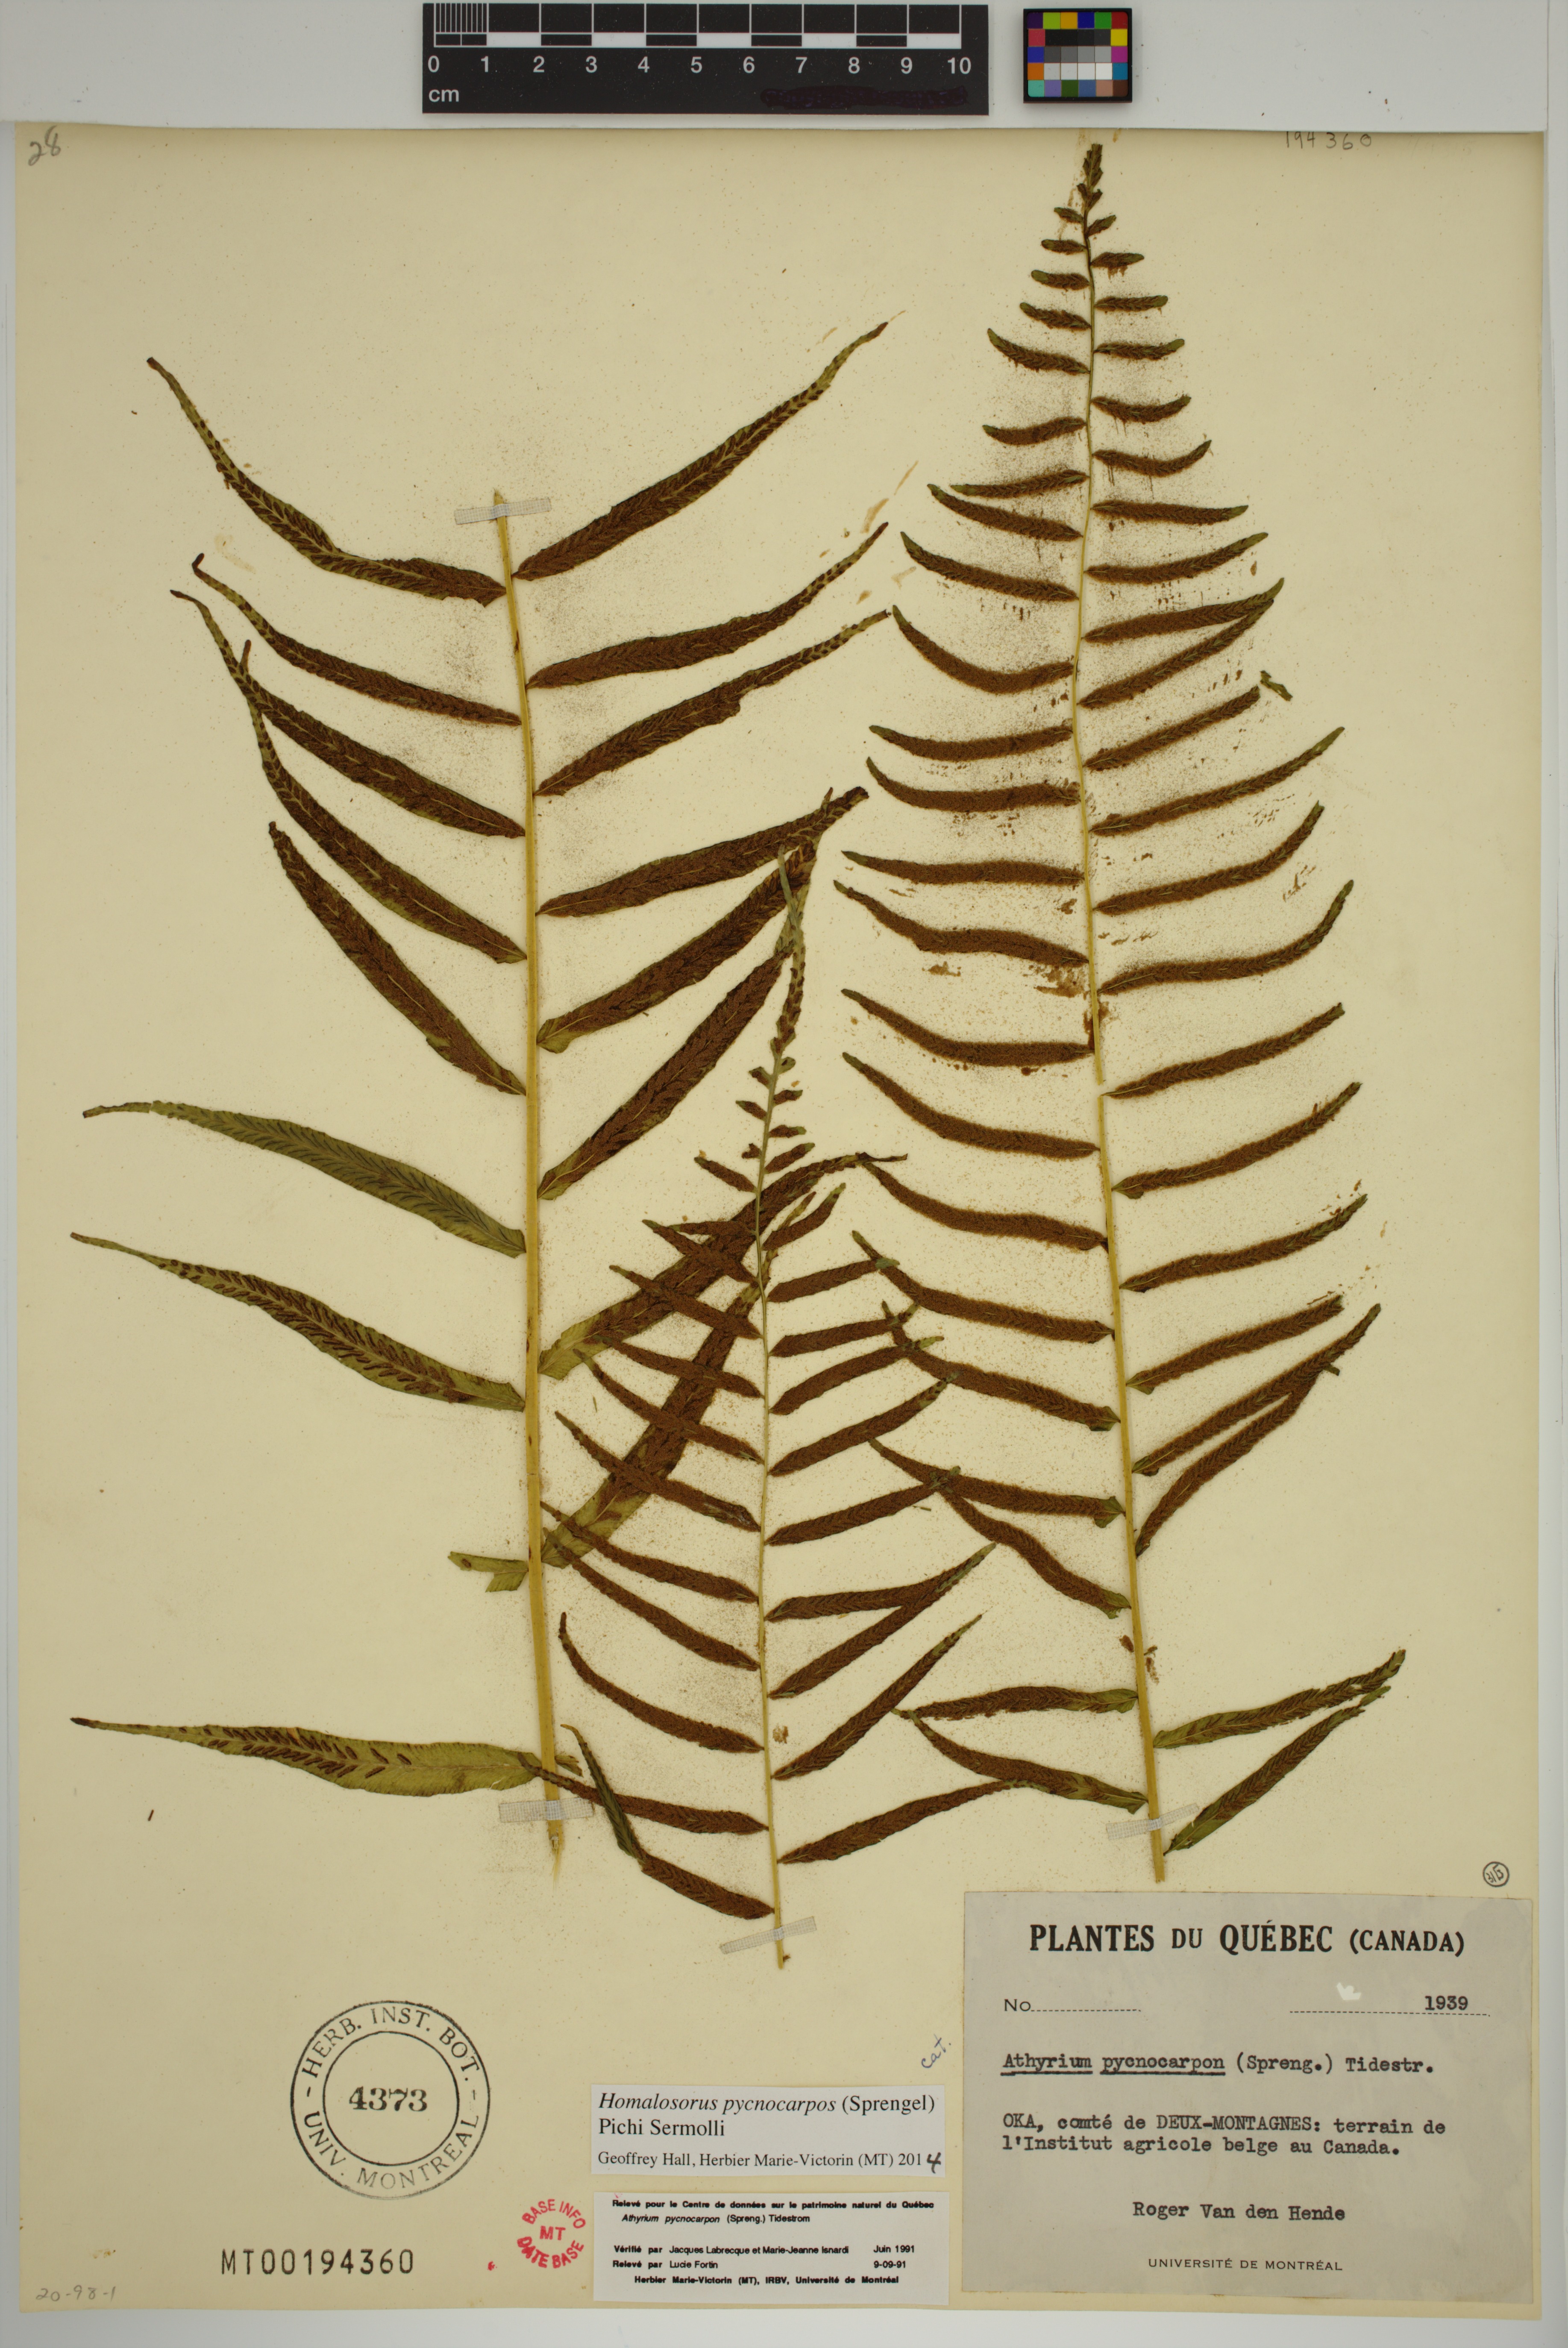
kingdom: Plantae
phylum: Tracheophyta
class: Polypodiopsida
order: Polypodiales
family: Diplaziopsidaceae
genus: Homalosorus
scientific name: Homalosorus pycnocarpos
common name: Glade fern
